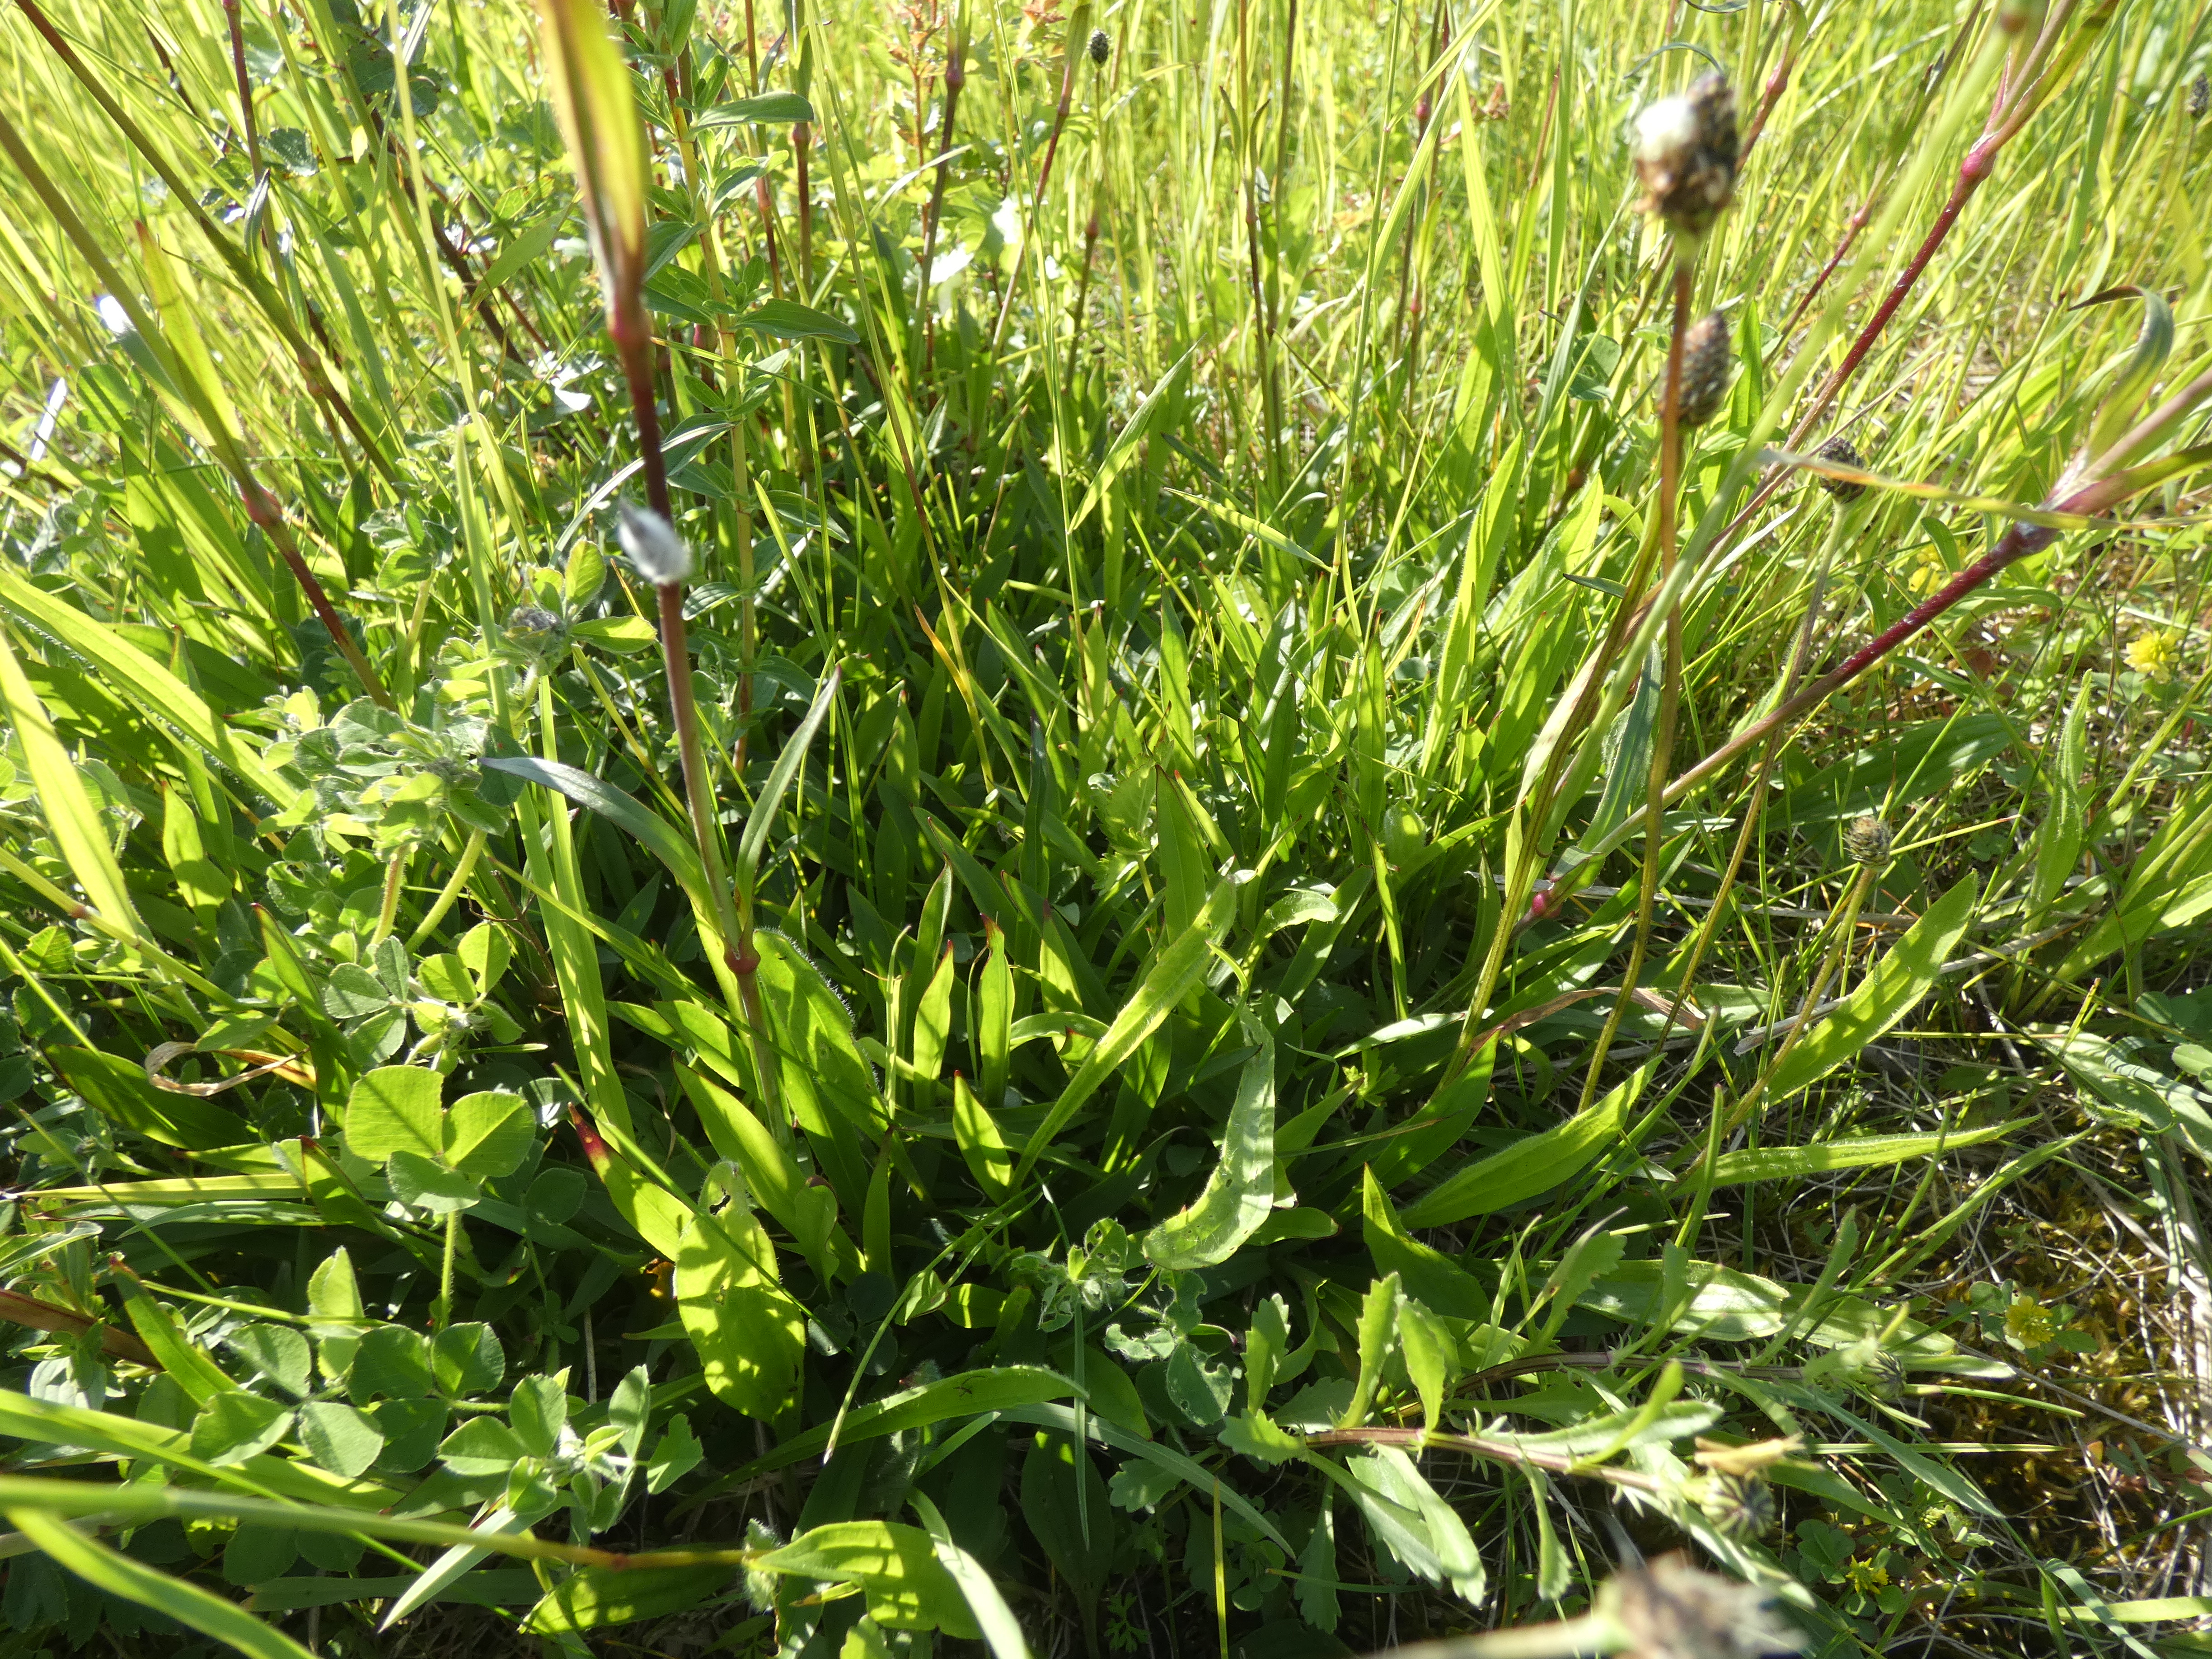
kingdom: Plantae
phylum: Tracheophyta
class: Magnoliopsida
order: Caryophyllales
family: Caryophyllaceae
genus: Viscaria
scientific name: Viscaria vulgaris
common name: Tjærenellike
